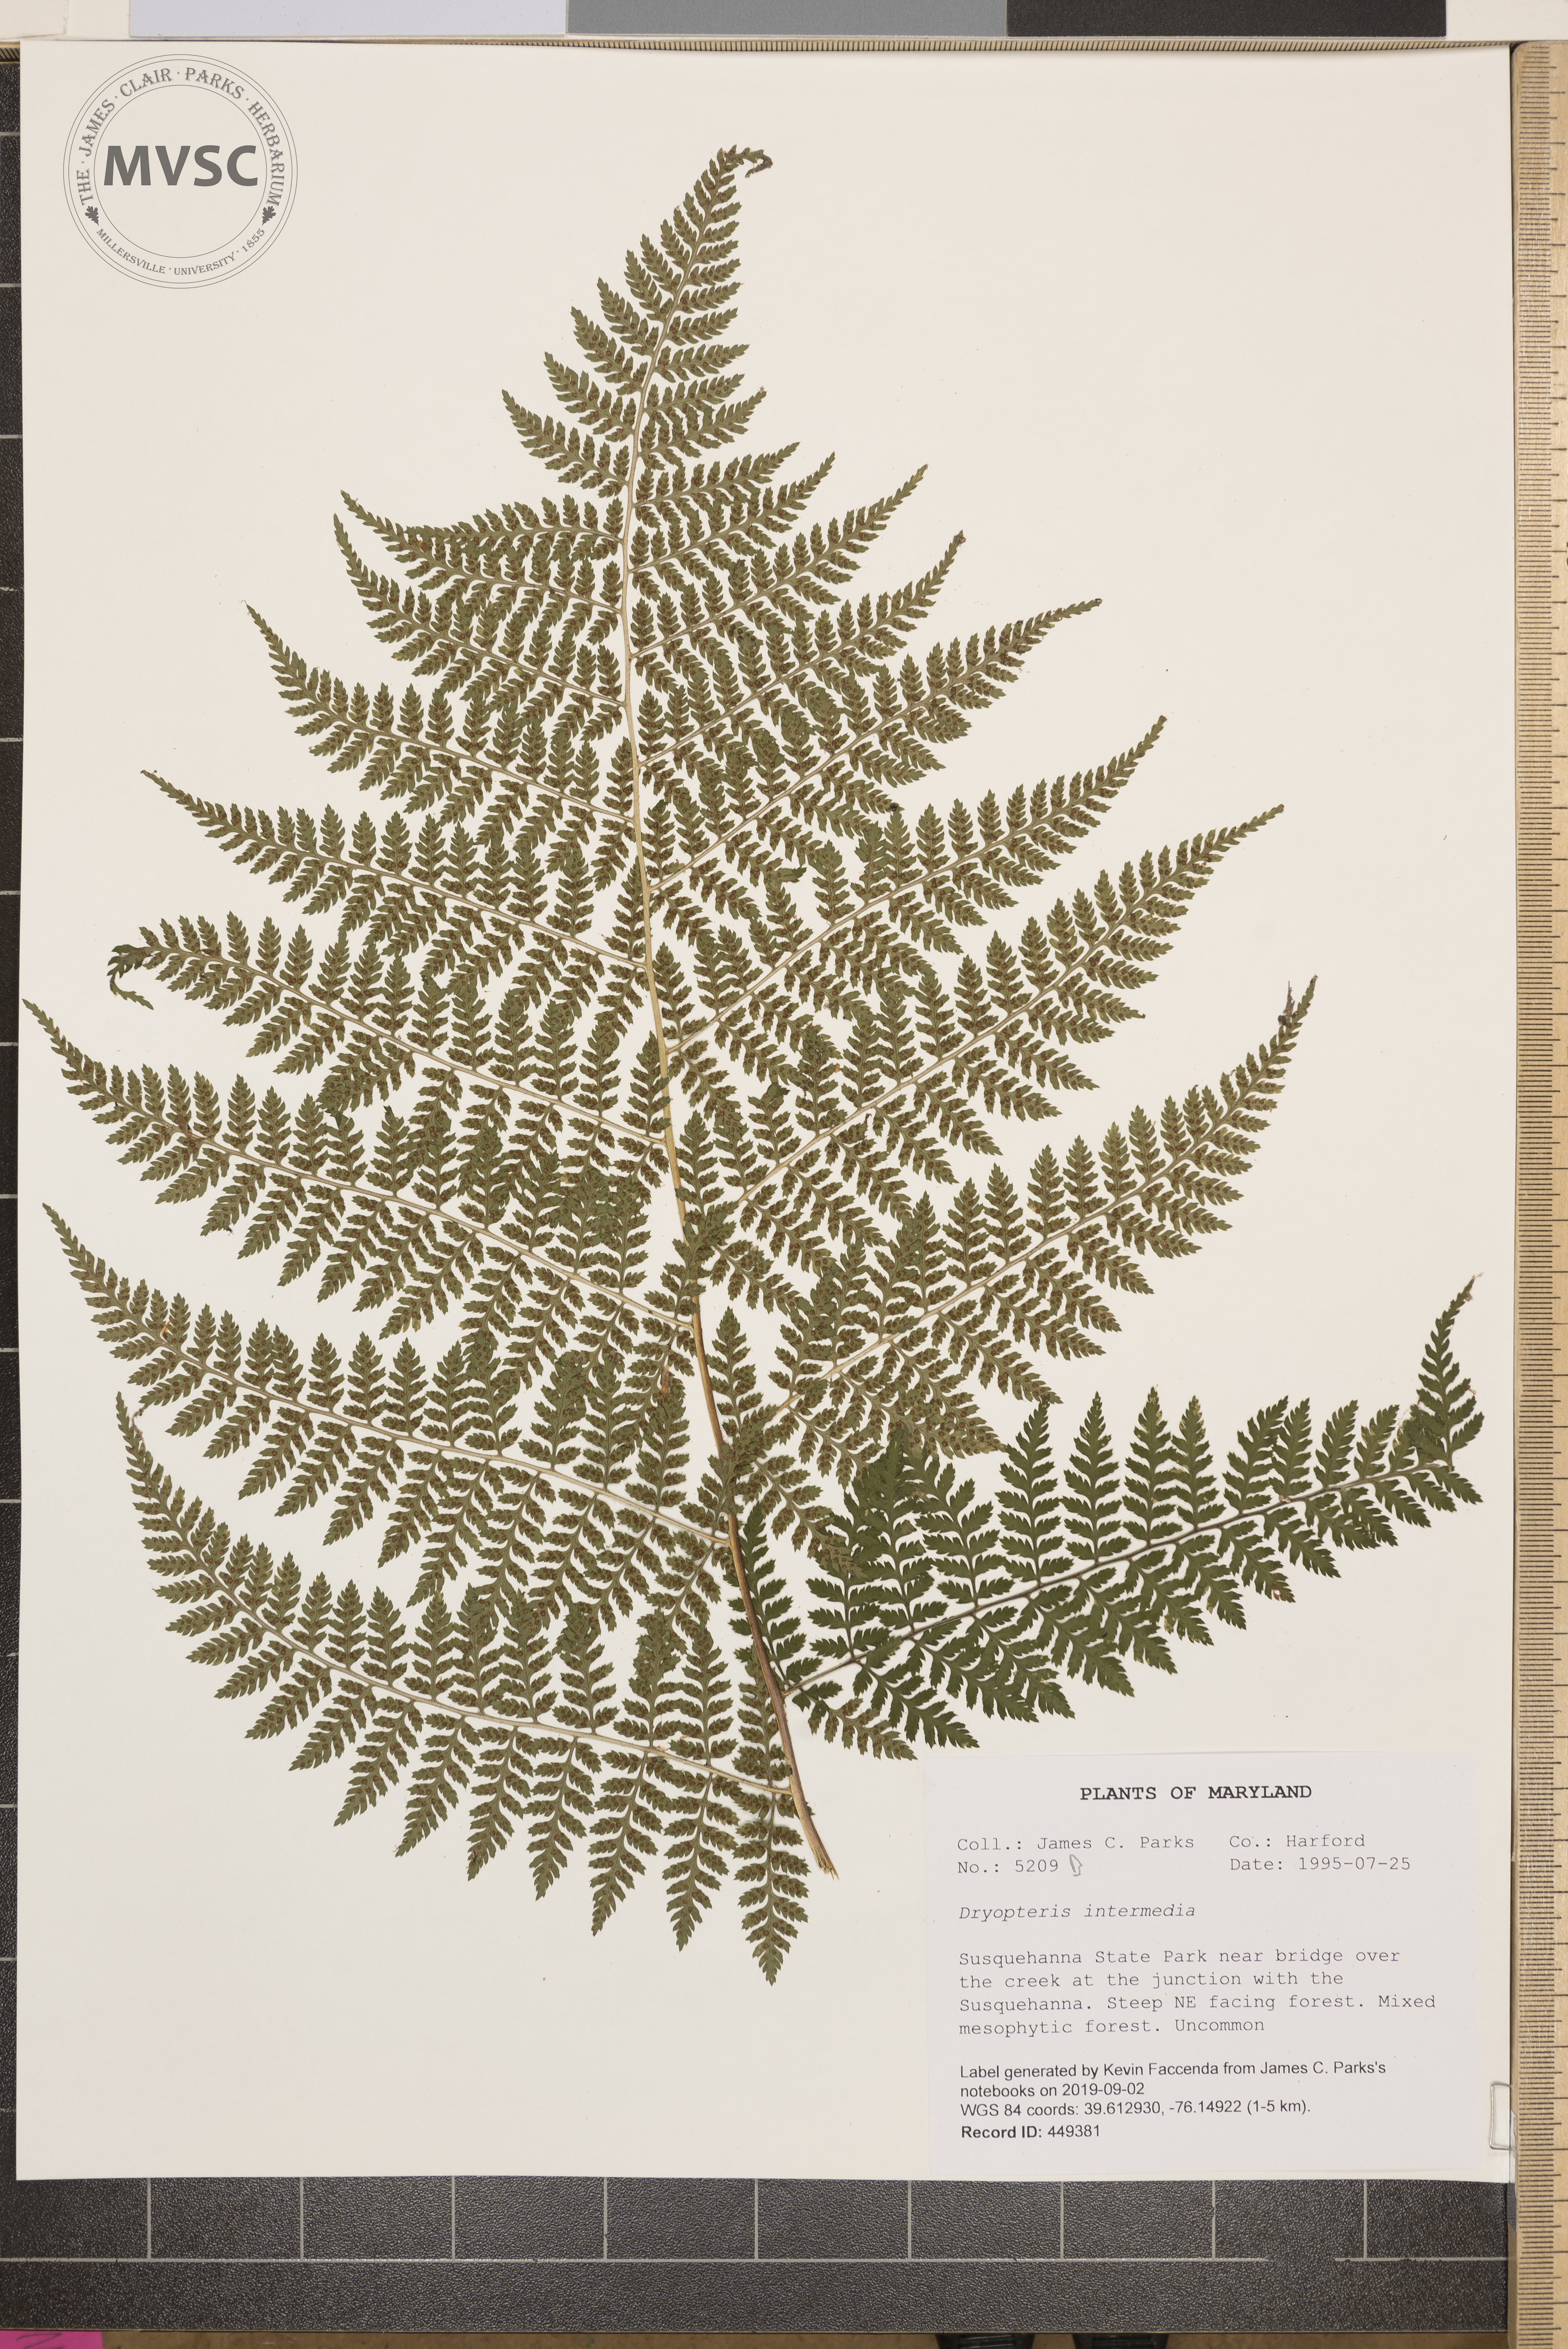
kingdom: Plantae
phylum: Tracheophyta
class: Polypodiopsida
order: Polypodiales
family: Dryopteridaceae
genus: Dryopteris
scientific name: Dryopteris intermedia
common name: Evergreen wood fern
